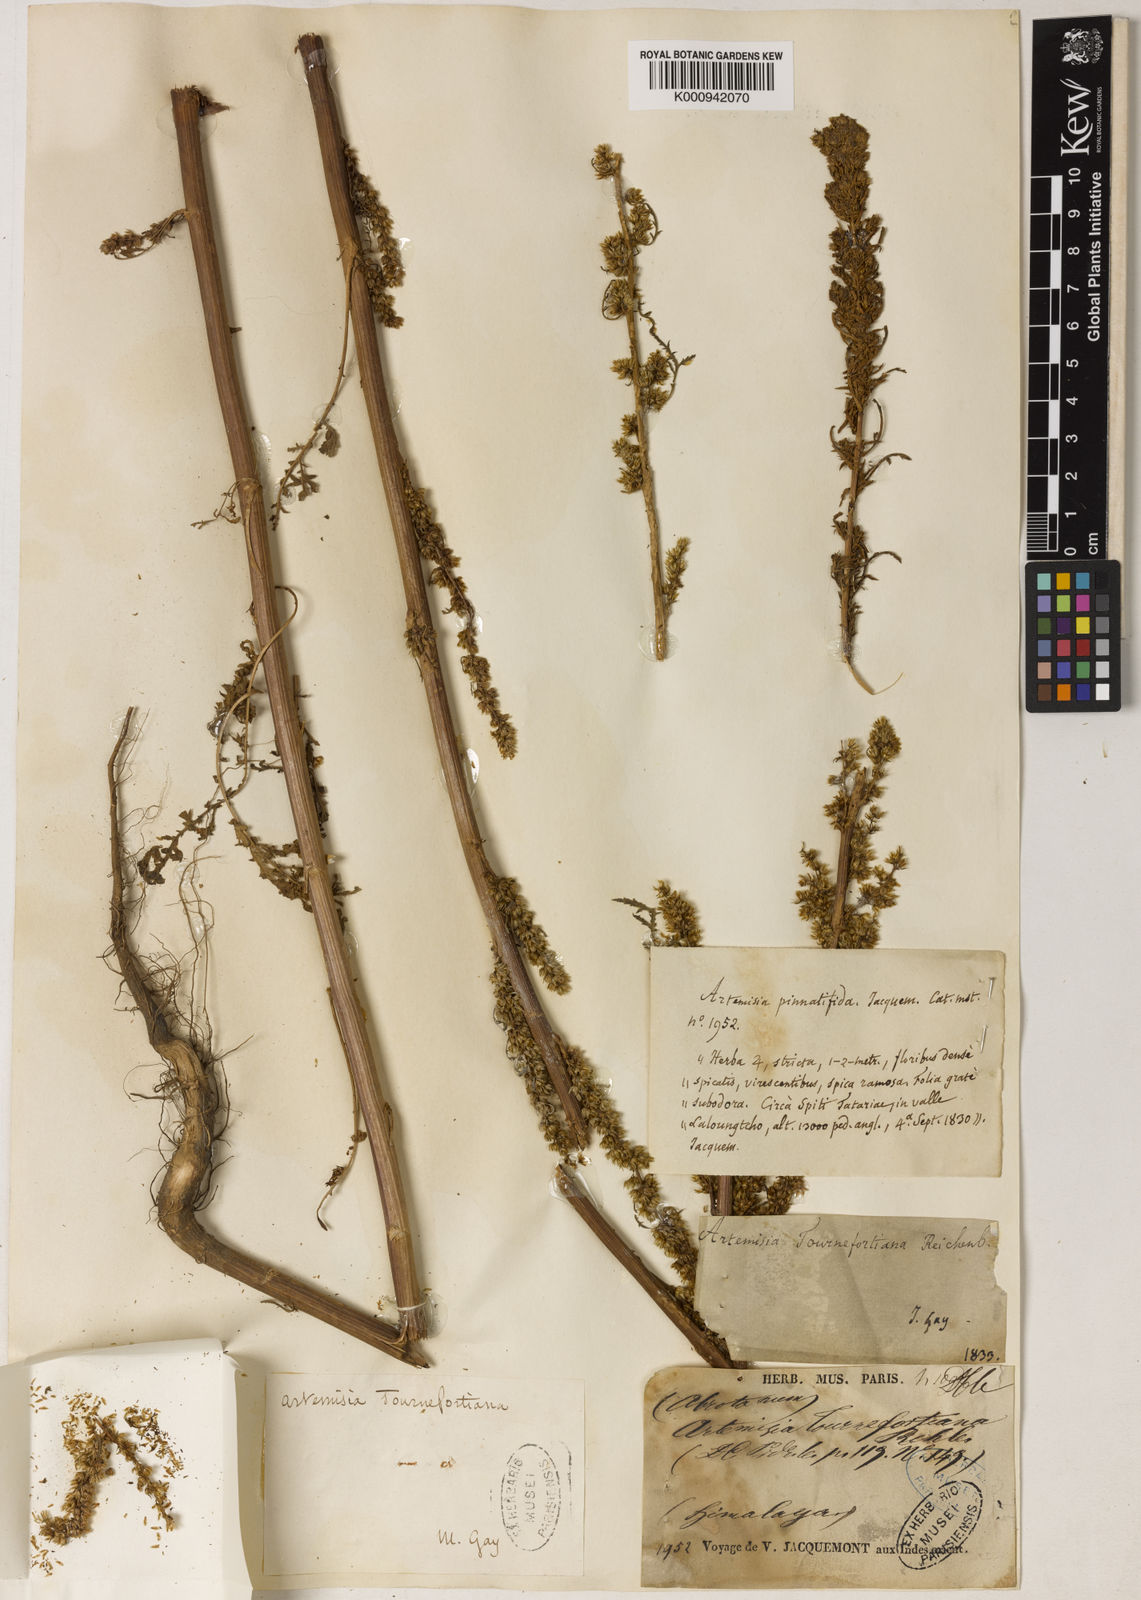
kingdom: Plantae
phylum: Tracheophyta
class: Magnoliopsida
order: Asterales
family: Asteraceae
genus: Artemisia
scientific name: Artemisia tournefortiana
